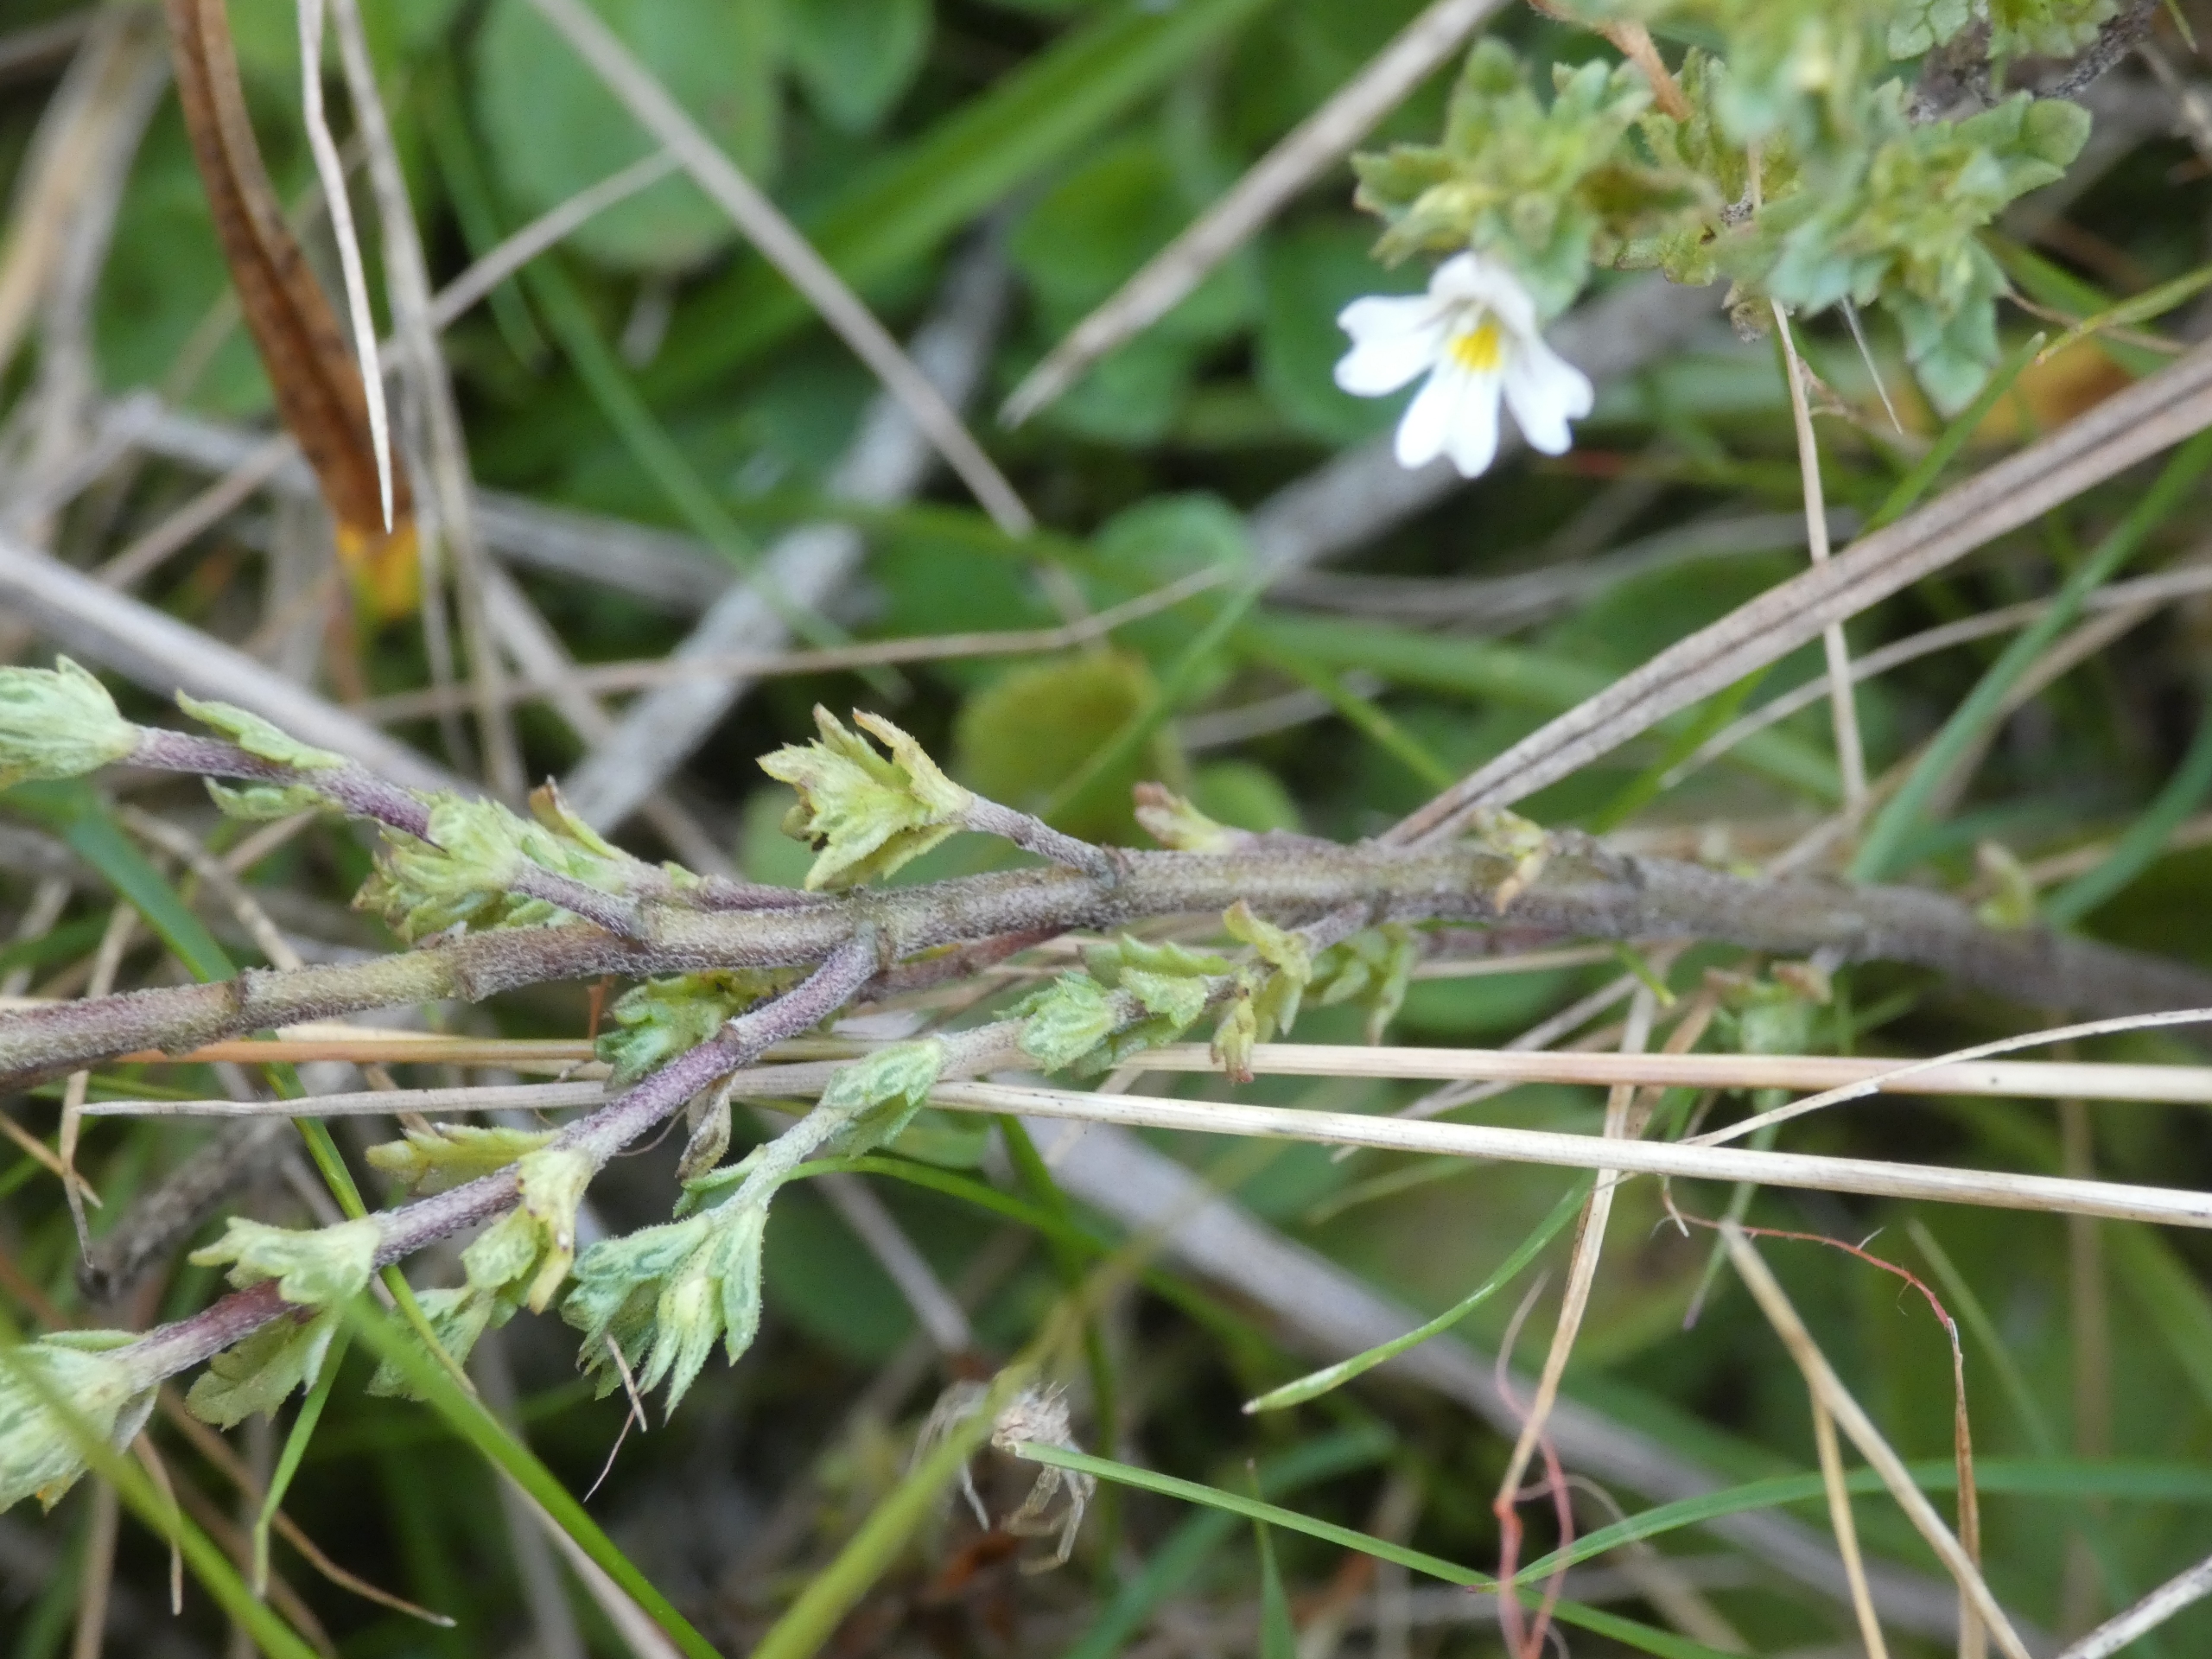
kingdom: Plantae
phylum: Tracheophyta
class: Magnoliopsida
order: Lamiales
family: Orobanchaceae
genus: Euphrasia
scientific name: Euphrasia vernalis
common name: Kirtel-øjentrøst
